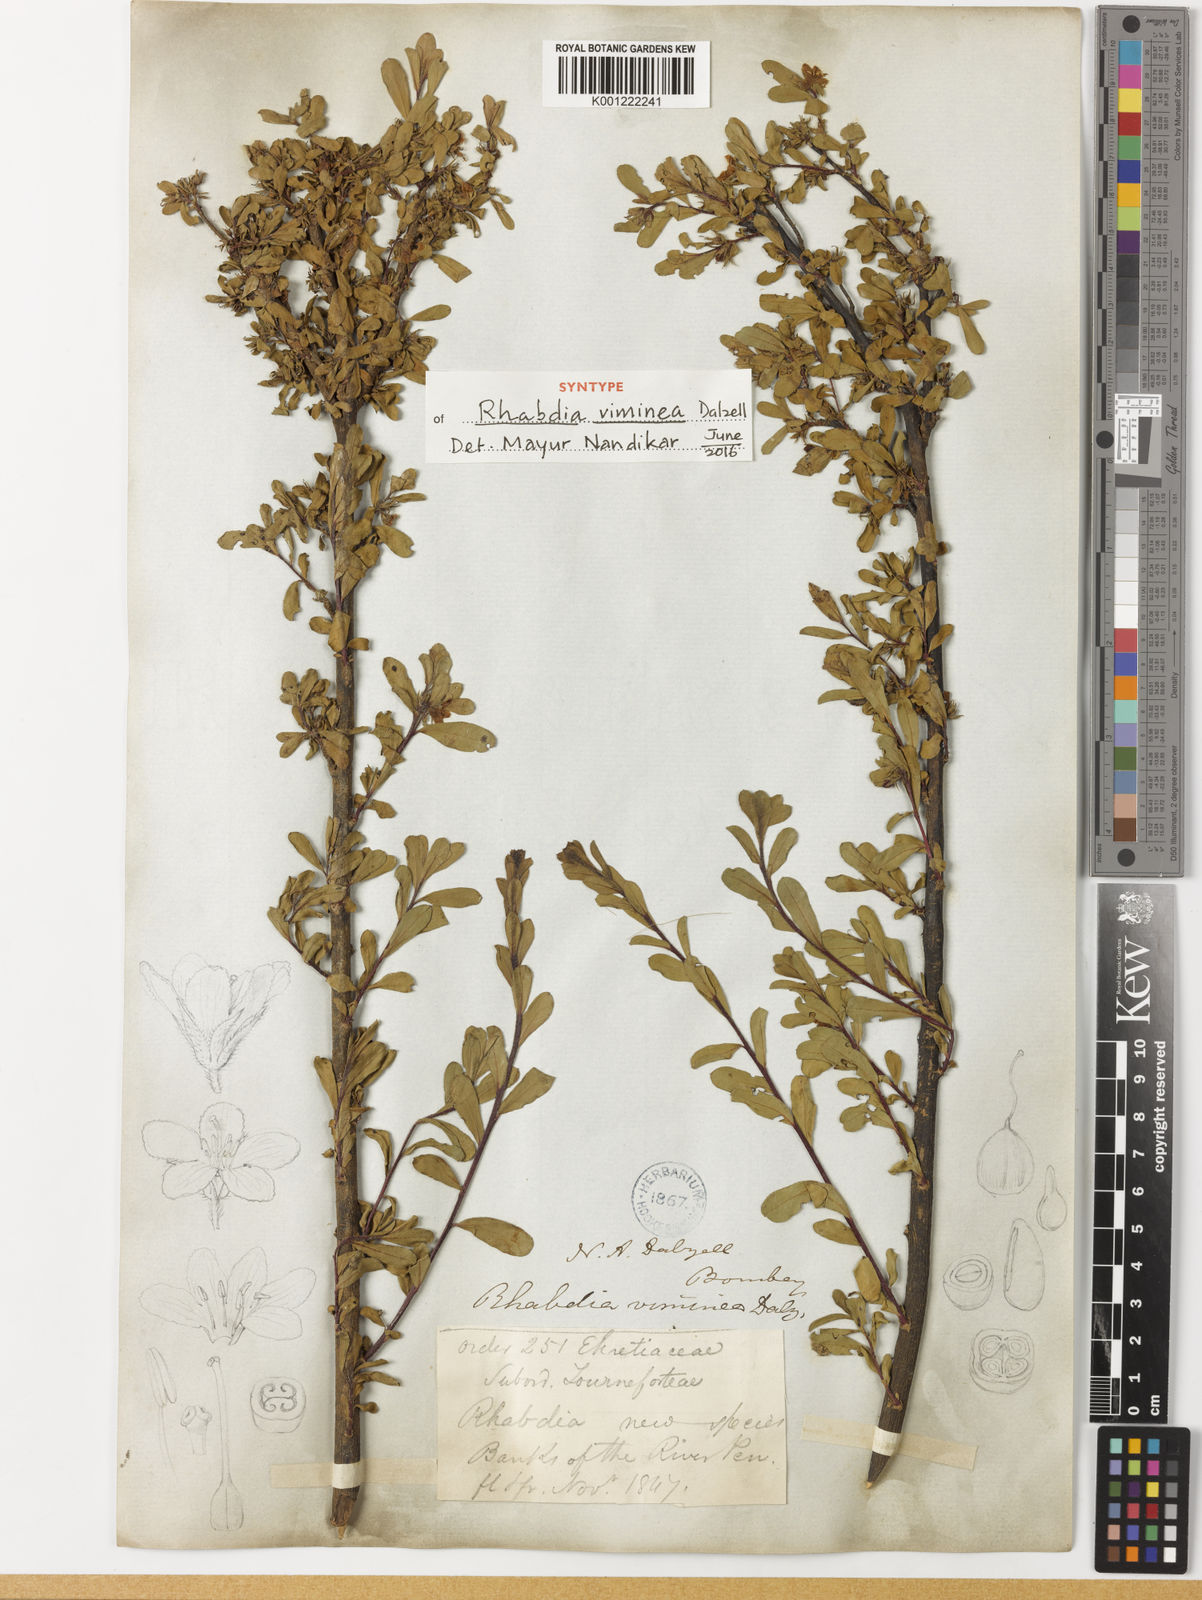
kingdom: Plantae
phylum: Tracheophyta
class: Magnoliopsida
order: Boraginales
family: Boraginaceae
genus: Rotula
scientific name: Rotula
